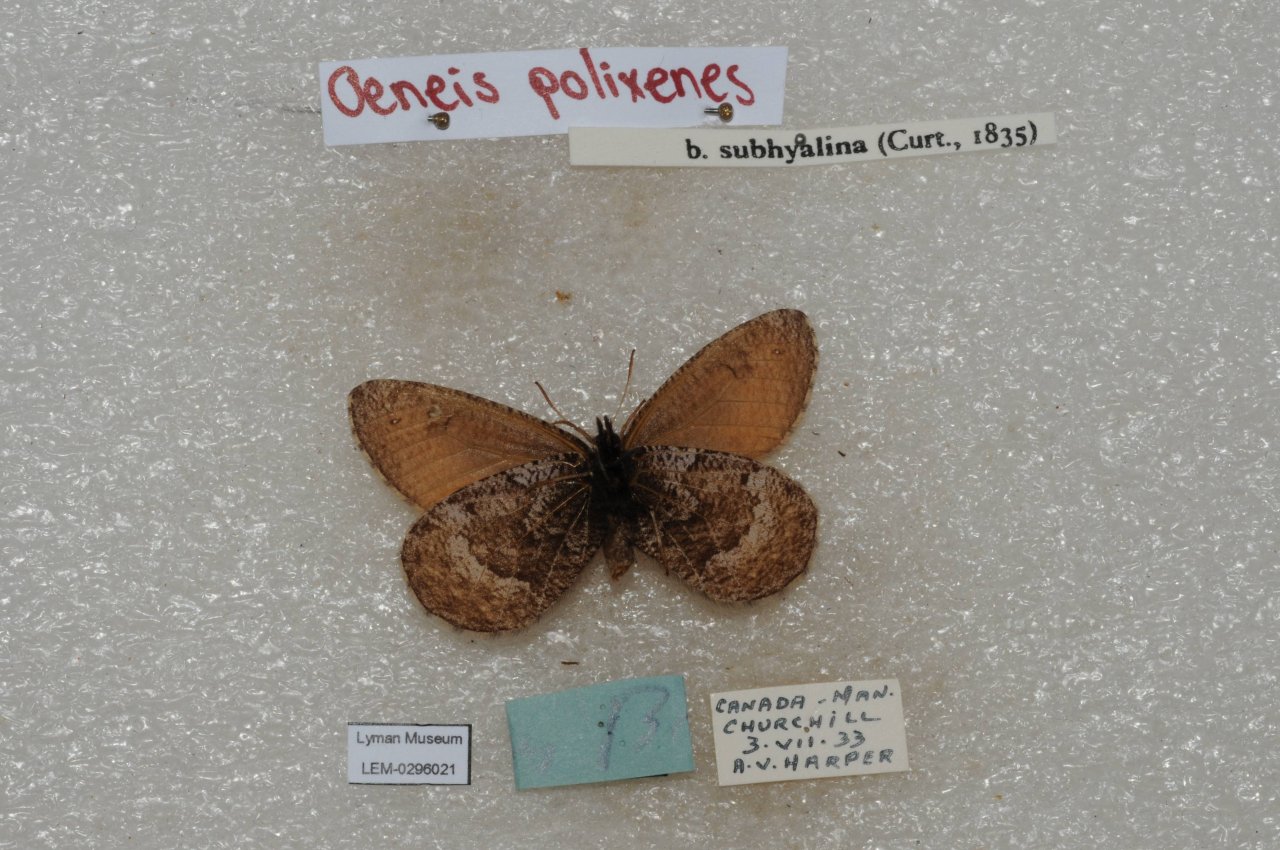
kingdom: Animalia
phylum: Arthropoda
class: Insecta
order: Lepidoptera
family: Nymphalidae
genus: Oeneis
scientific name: Oeneis bore
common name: Polixenes Arctic
